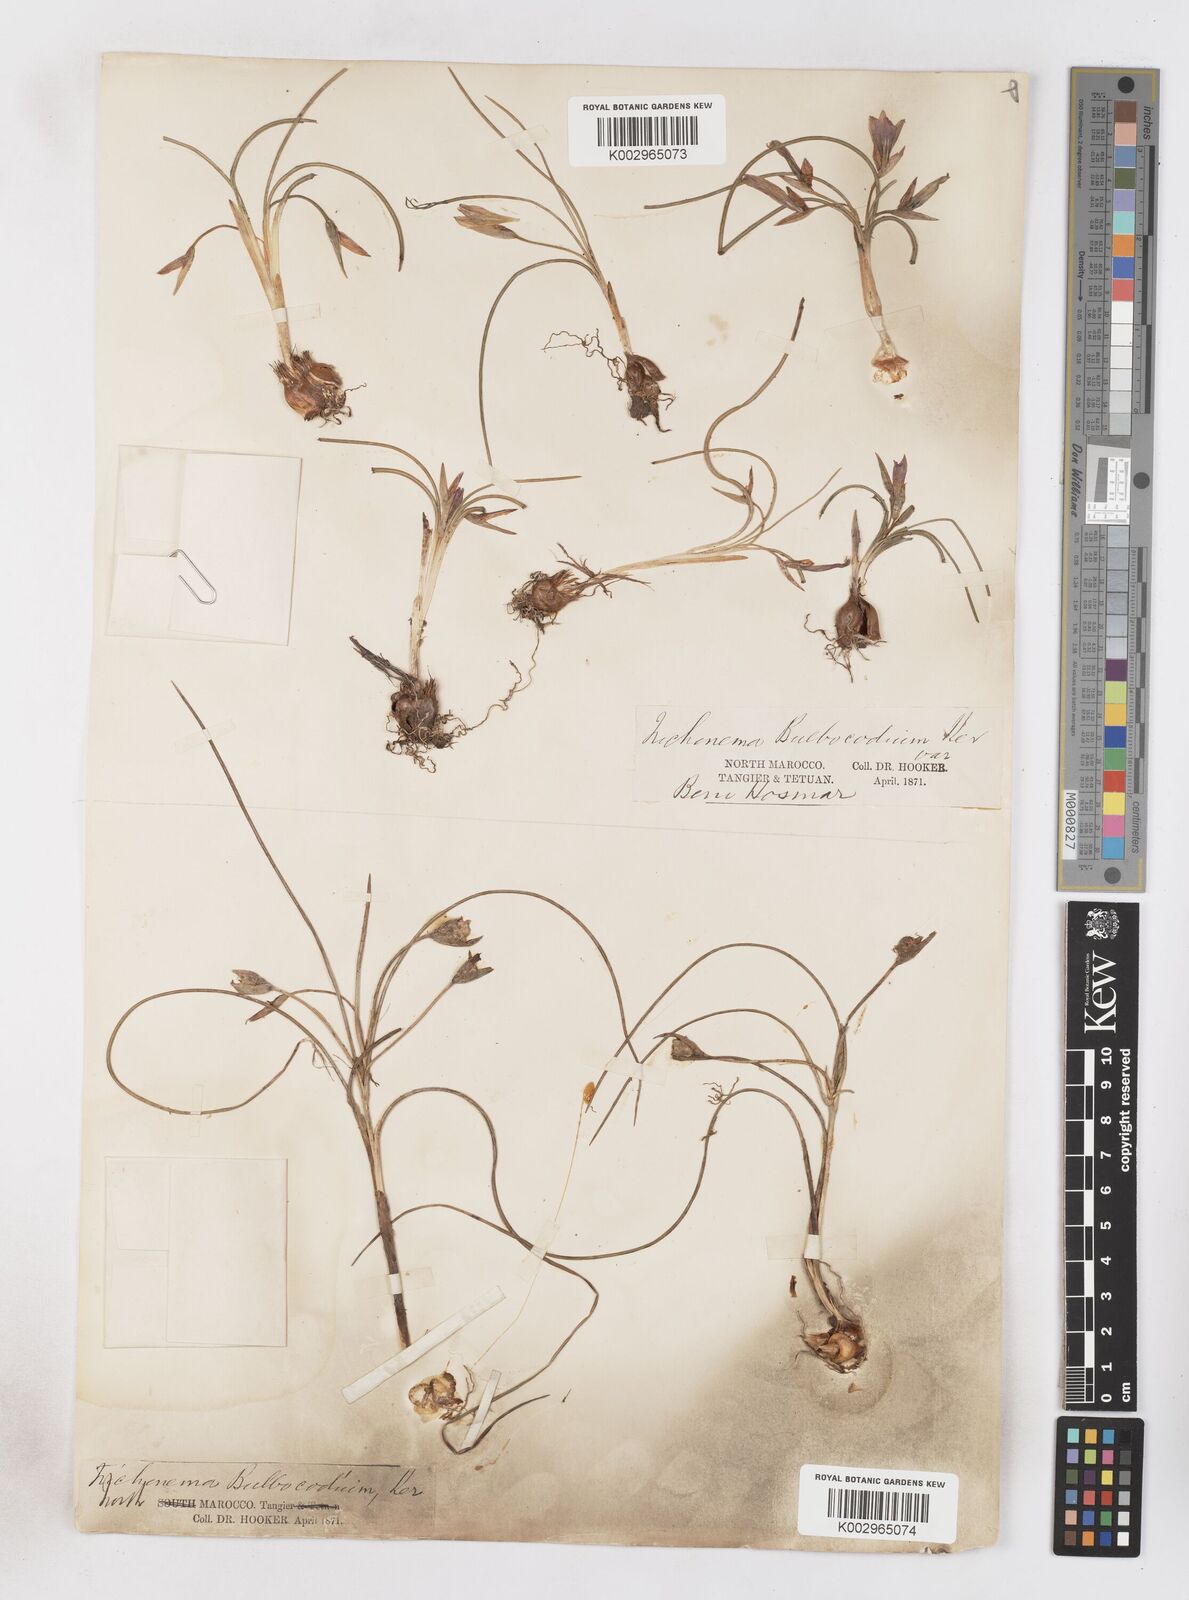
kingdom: Plantae
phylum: Tracheophyta
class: Liliopsida
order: Asparagales
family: Iridaceae
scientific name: Iridaceae
